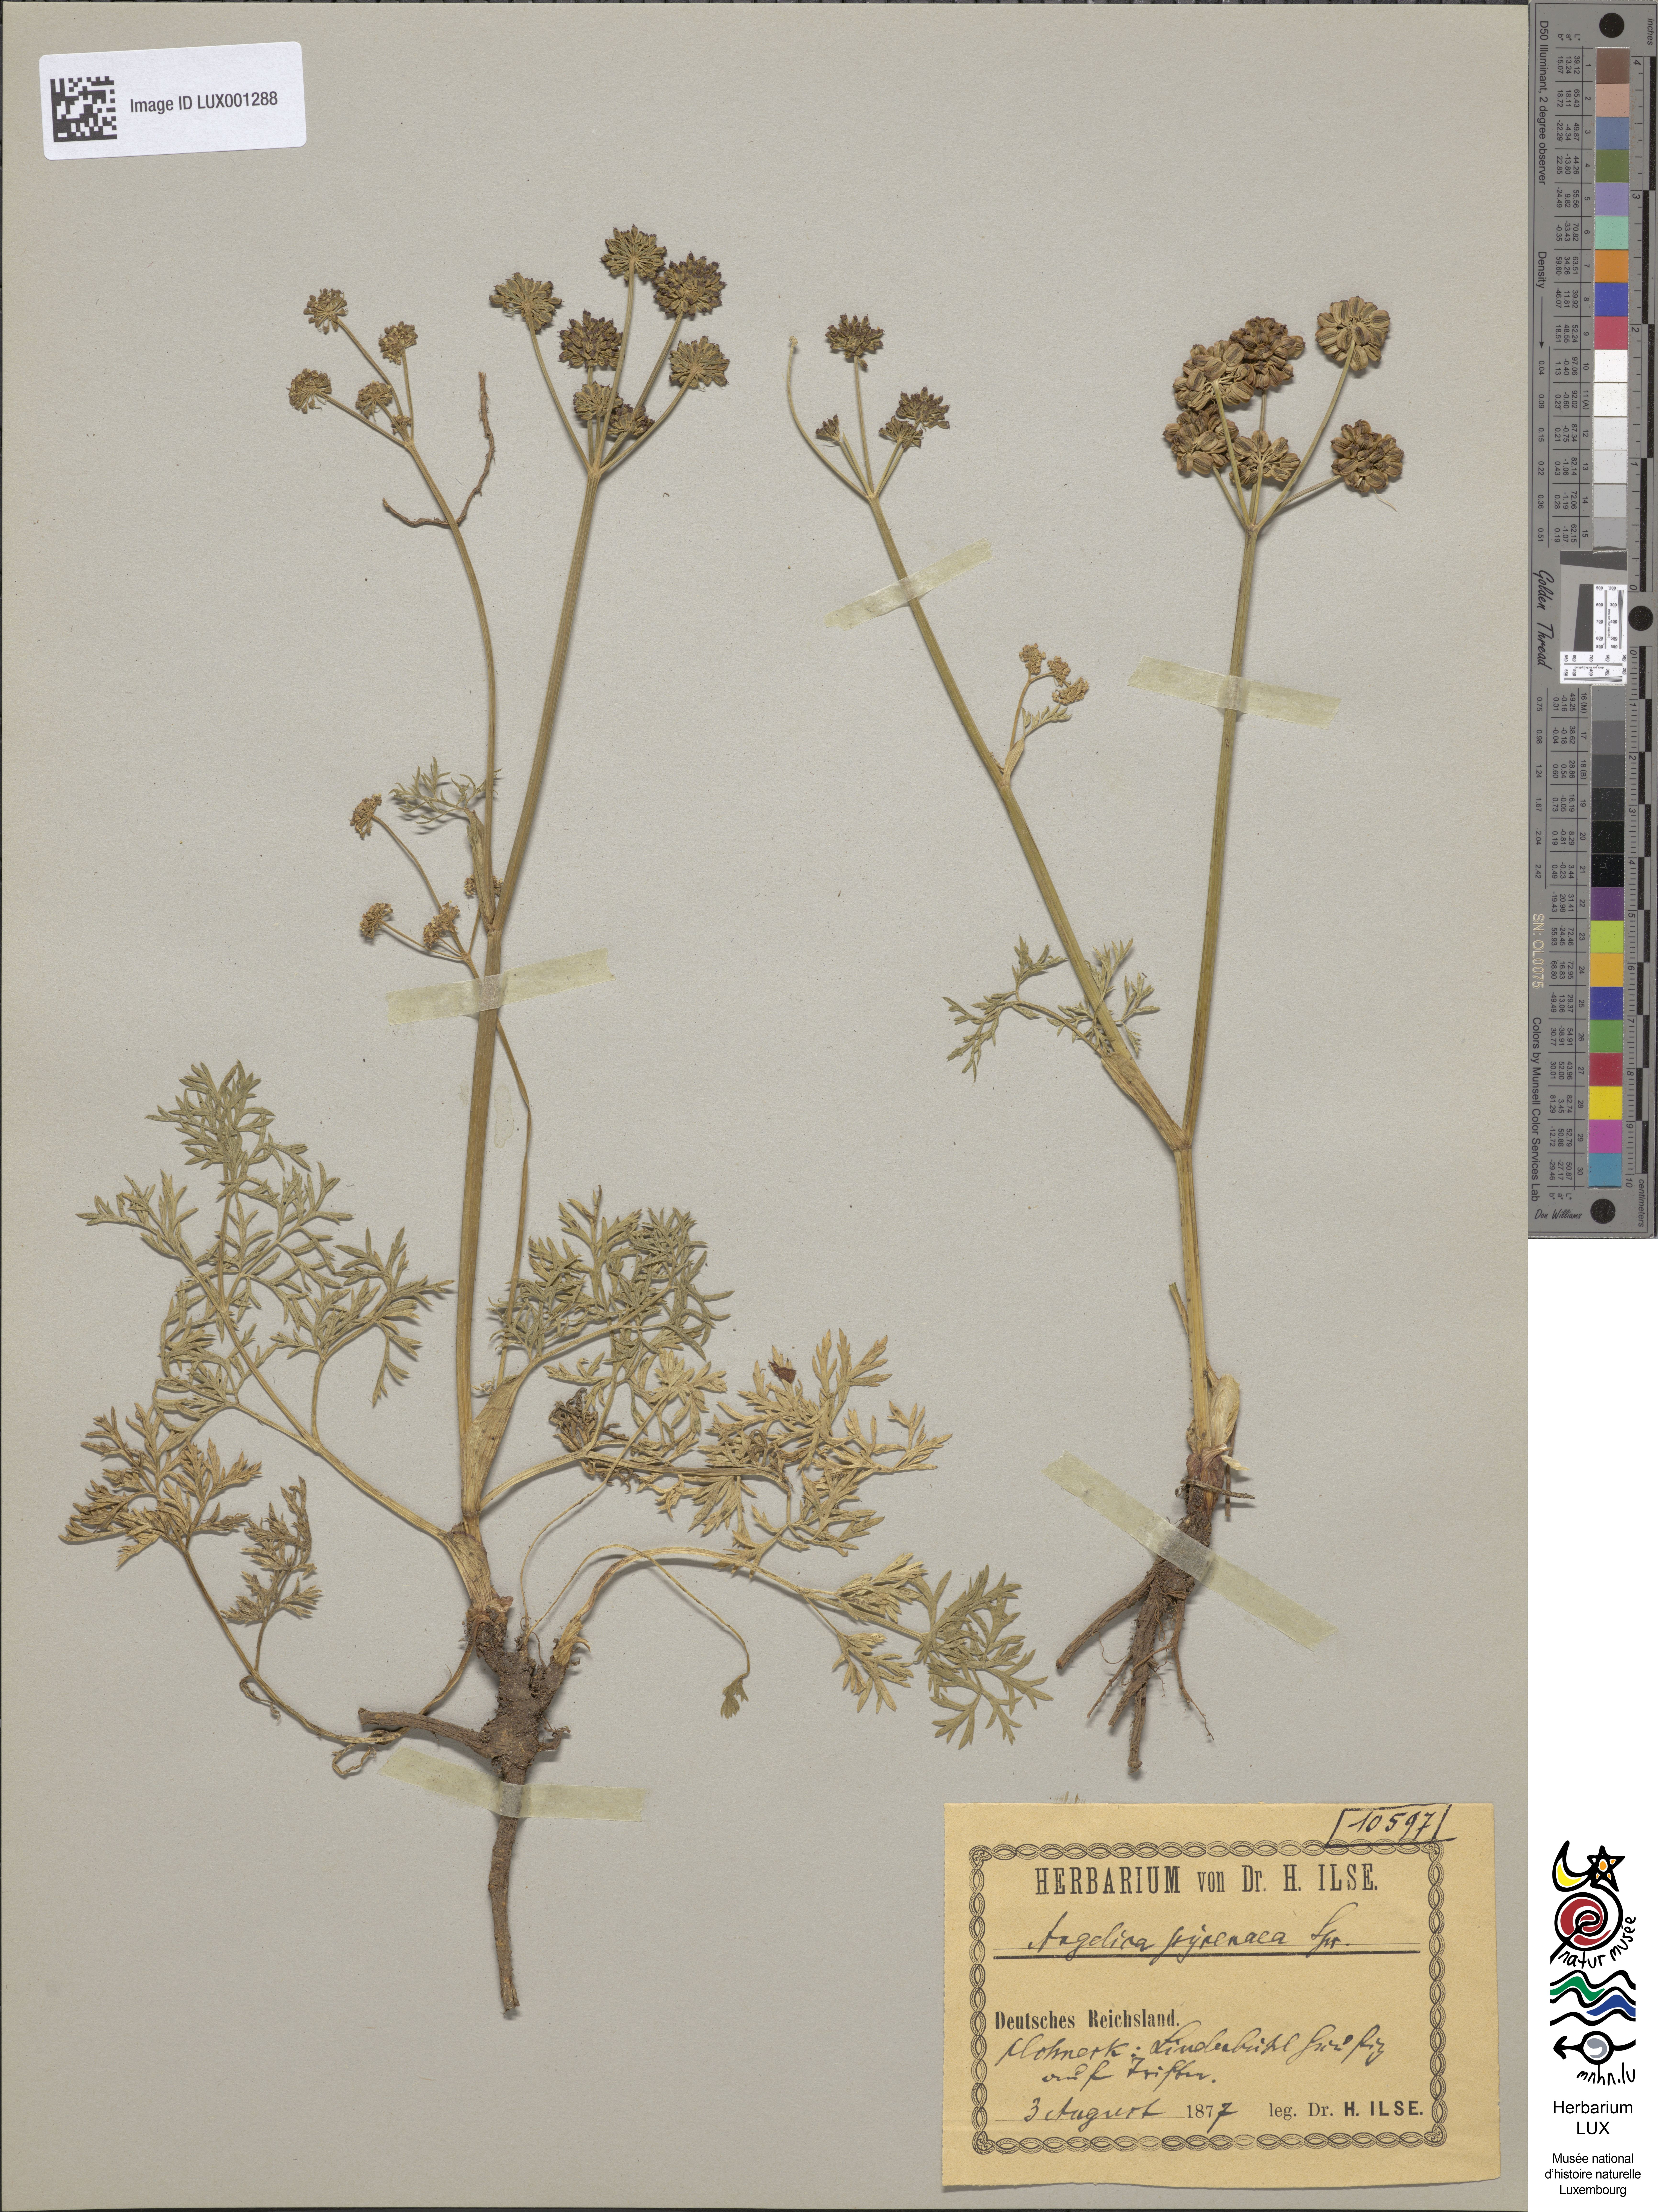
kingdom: Plantae
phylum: Tracheophyta
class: Magnoliopsida
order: Apiales
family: Apiaceae
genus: Epikeros
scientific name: Epikeros pyrenaeus
